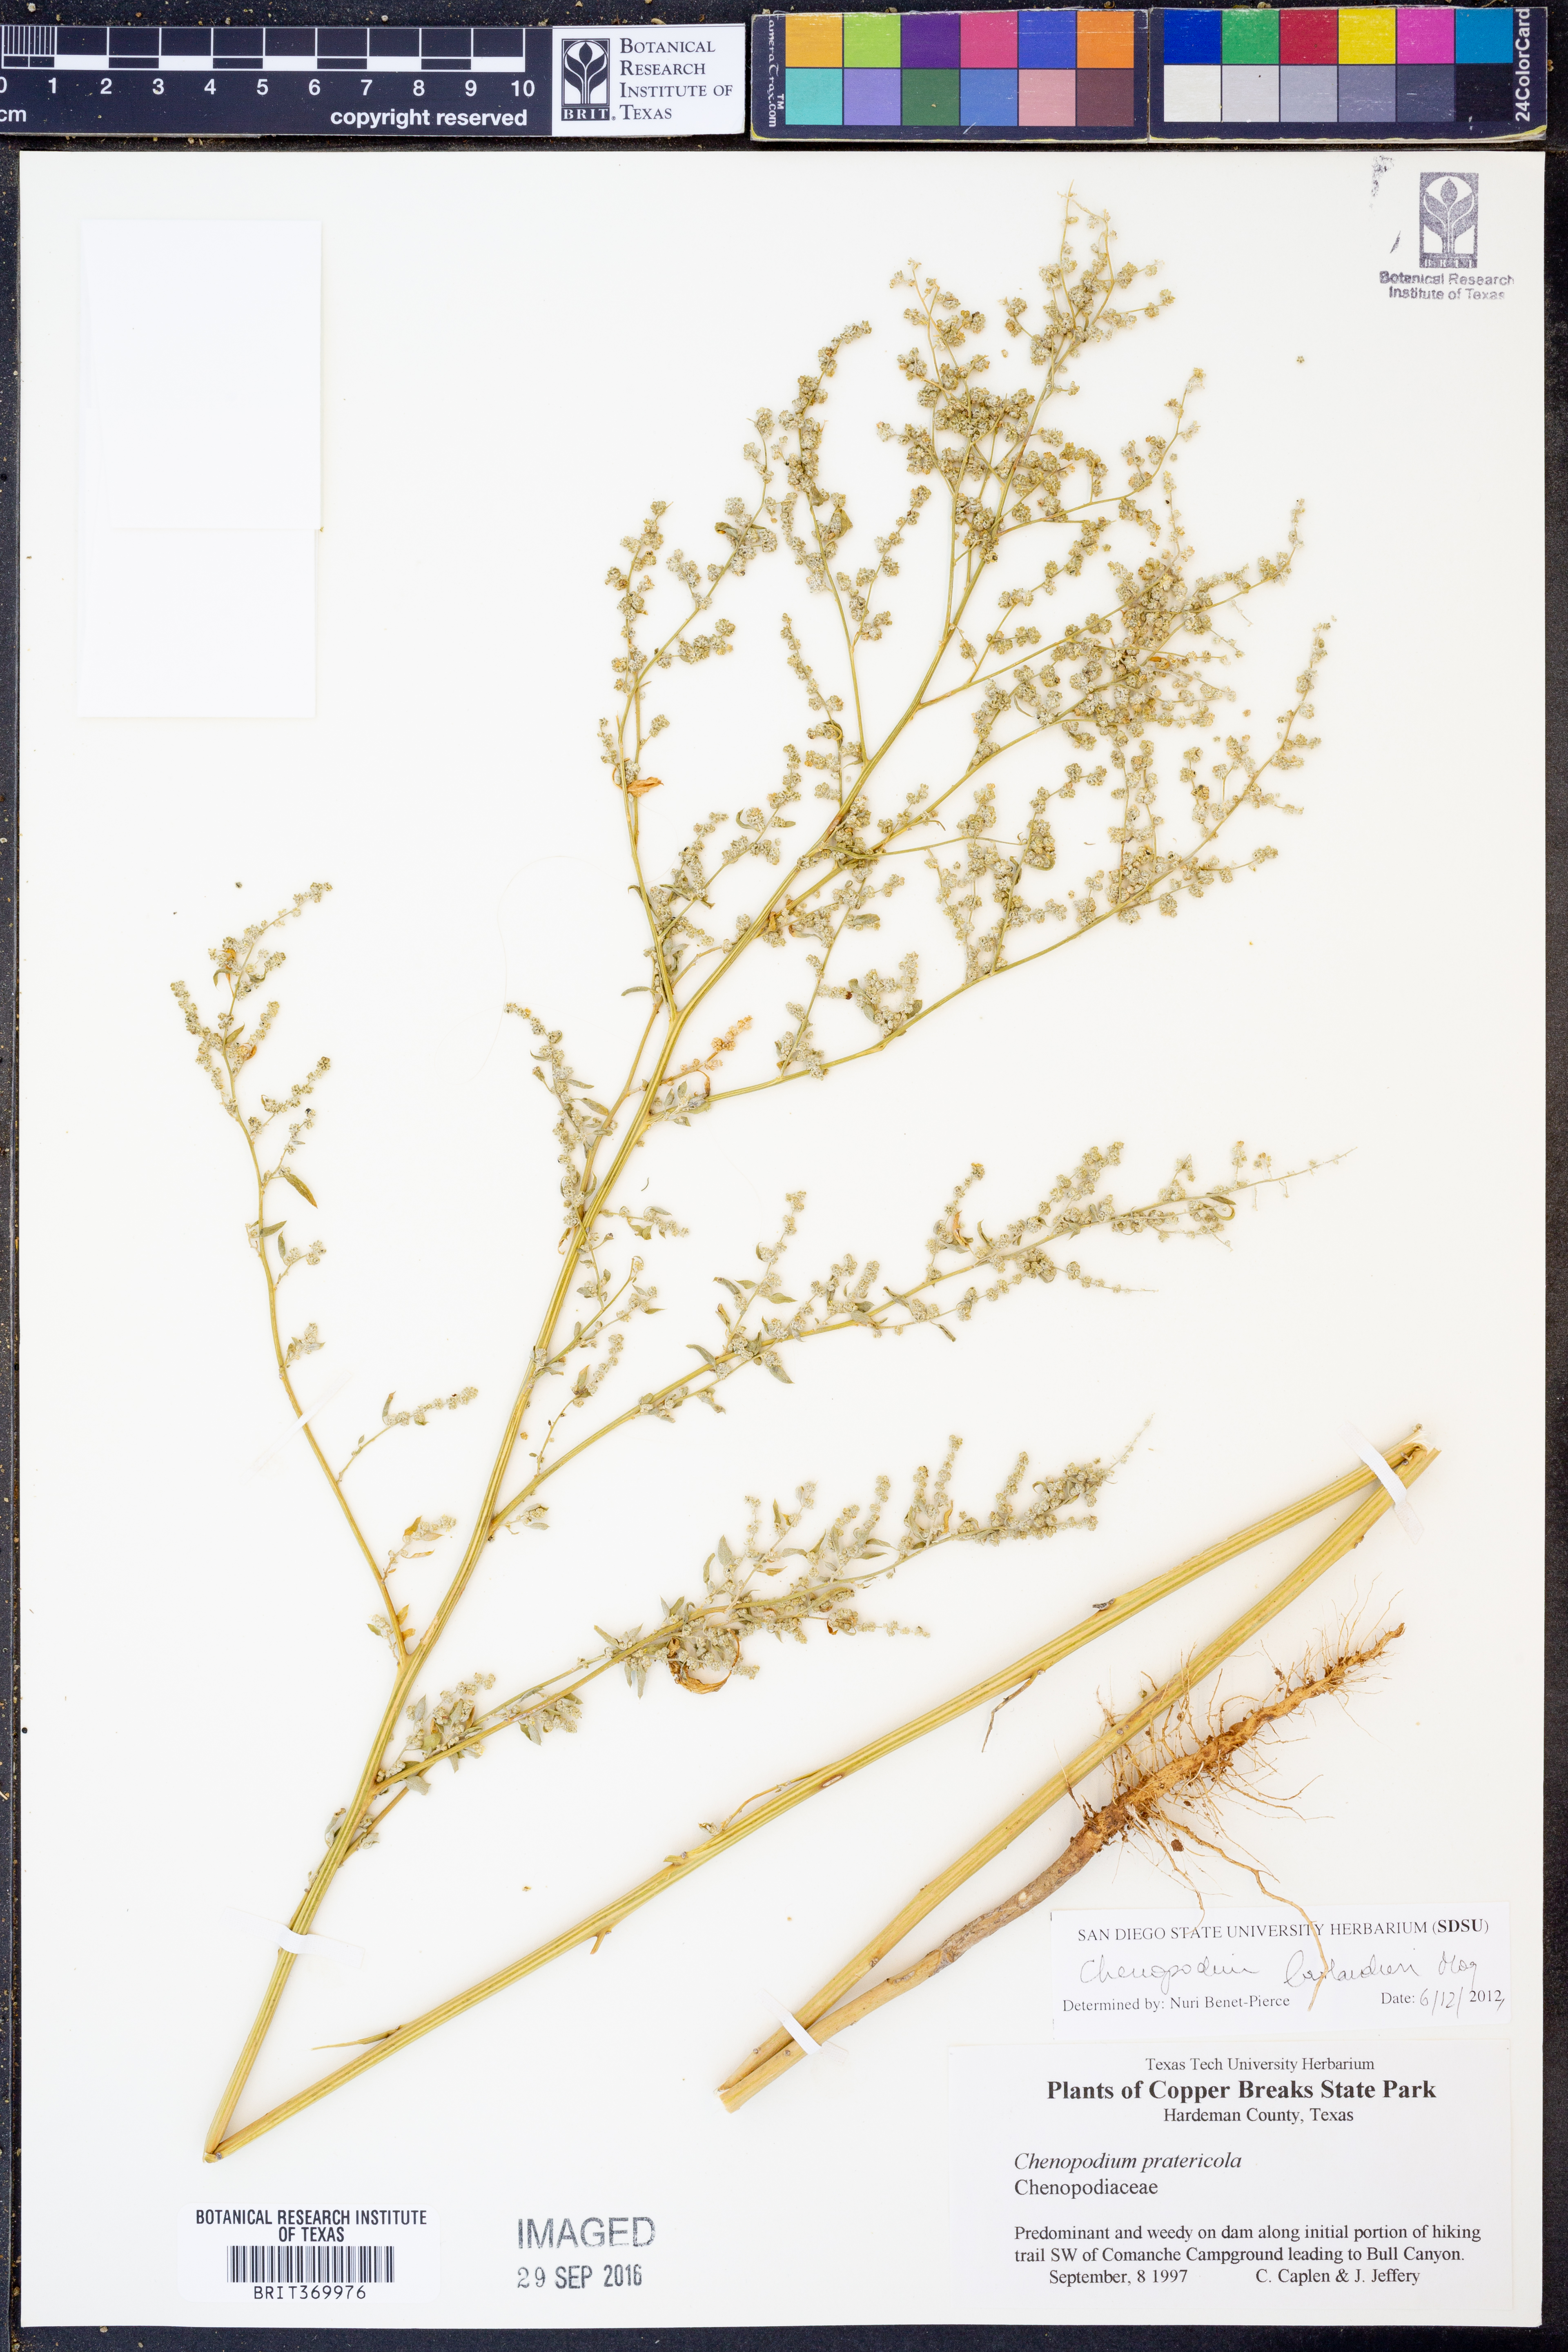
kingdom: Plantae
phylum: Tracheophyta
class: Magnoliopsida
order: Caryophyllales
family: Amaranthaceae
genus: Chenopodium
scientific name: Chenopodium berlandieri
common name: Pit-seed goosefoot
